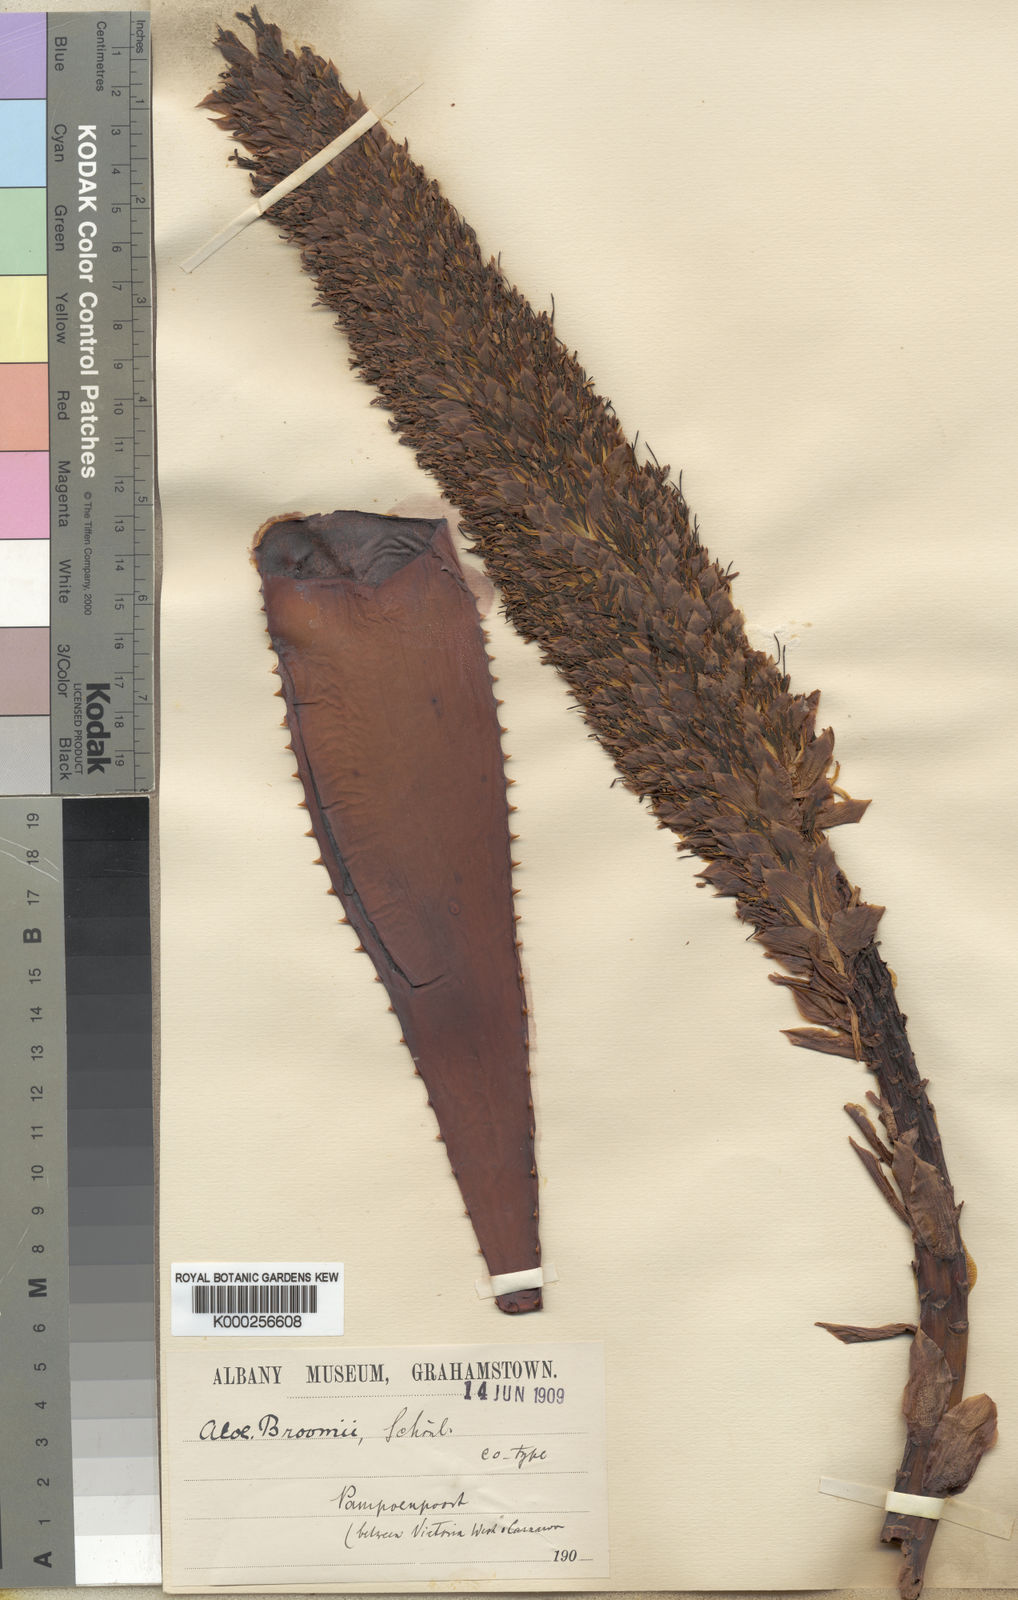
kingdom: Plantae
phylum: Tracheophyta
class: Liliopsida
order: Asparagales
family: Asphodelaceae
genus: Aloe
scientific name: Aloe
